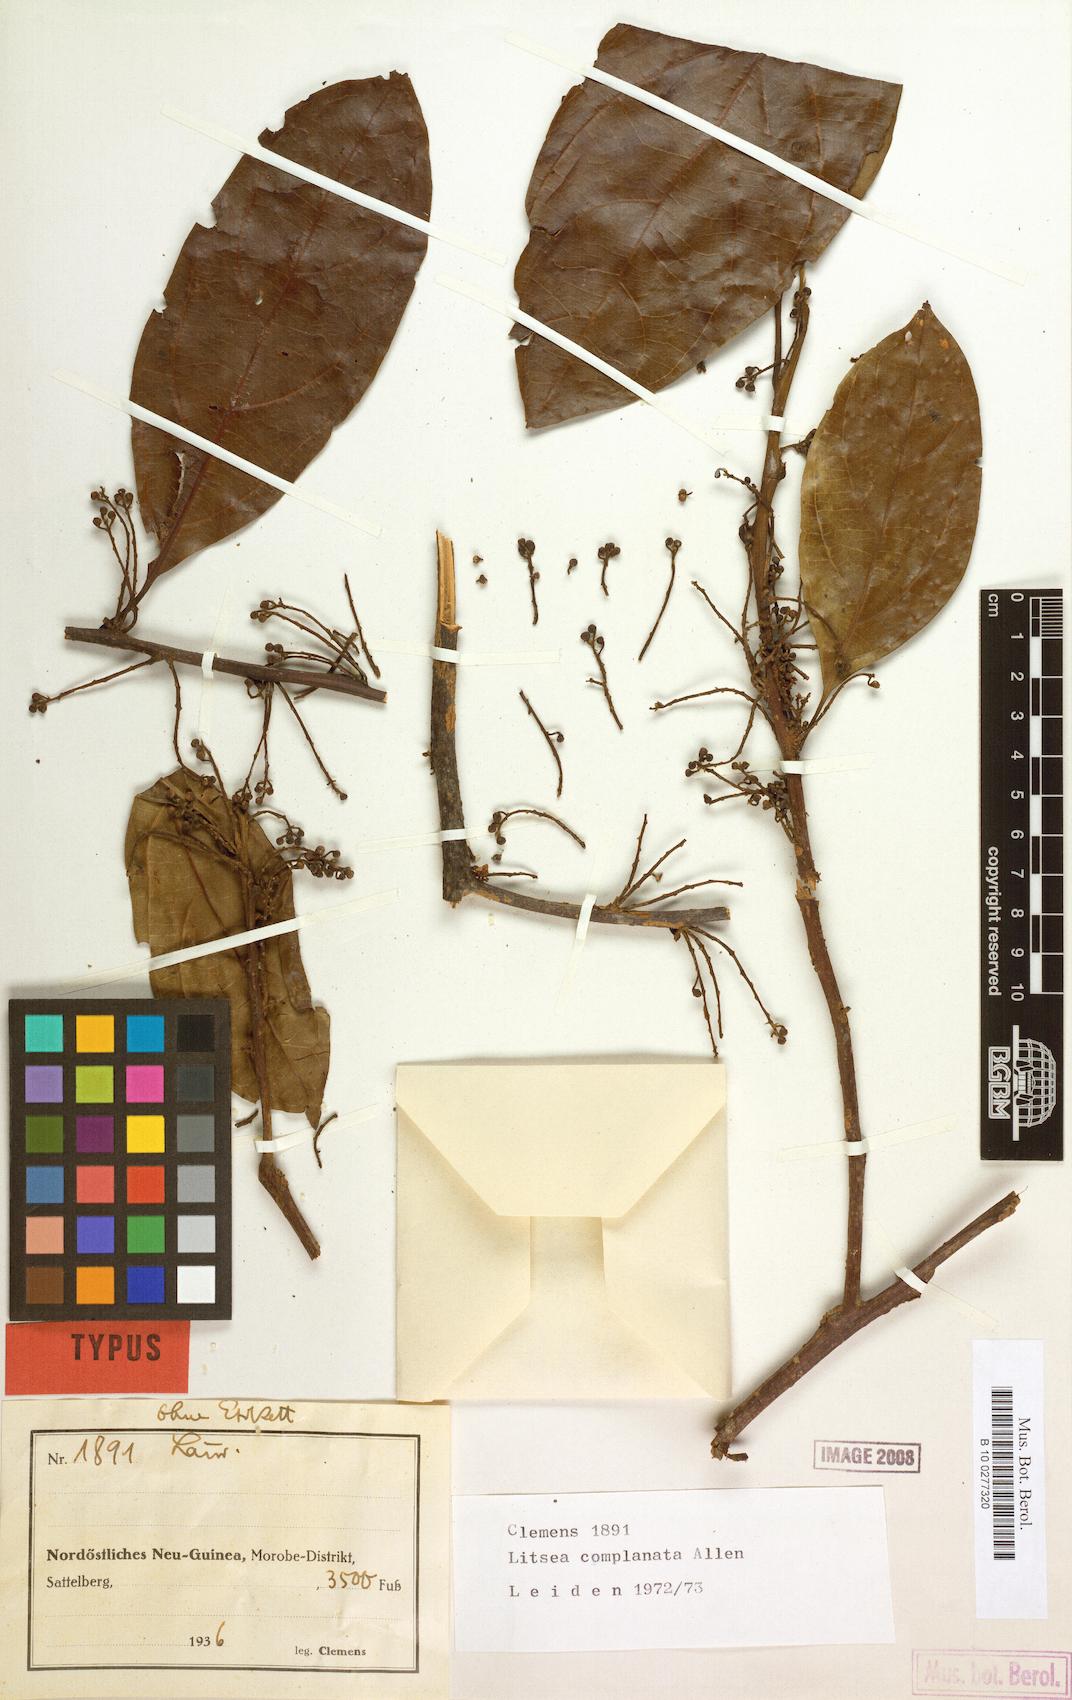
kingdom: Plantae
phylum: Tracheophyta
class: Magnoliopsida
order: Laurales
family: Lauraceae
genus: Litsea
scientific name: Litsea complanata
